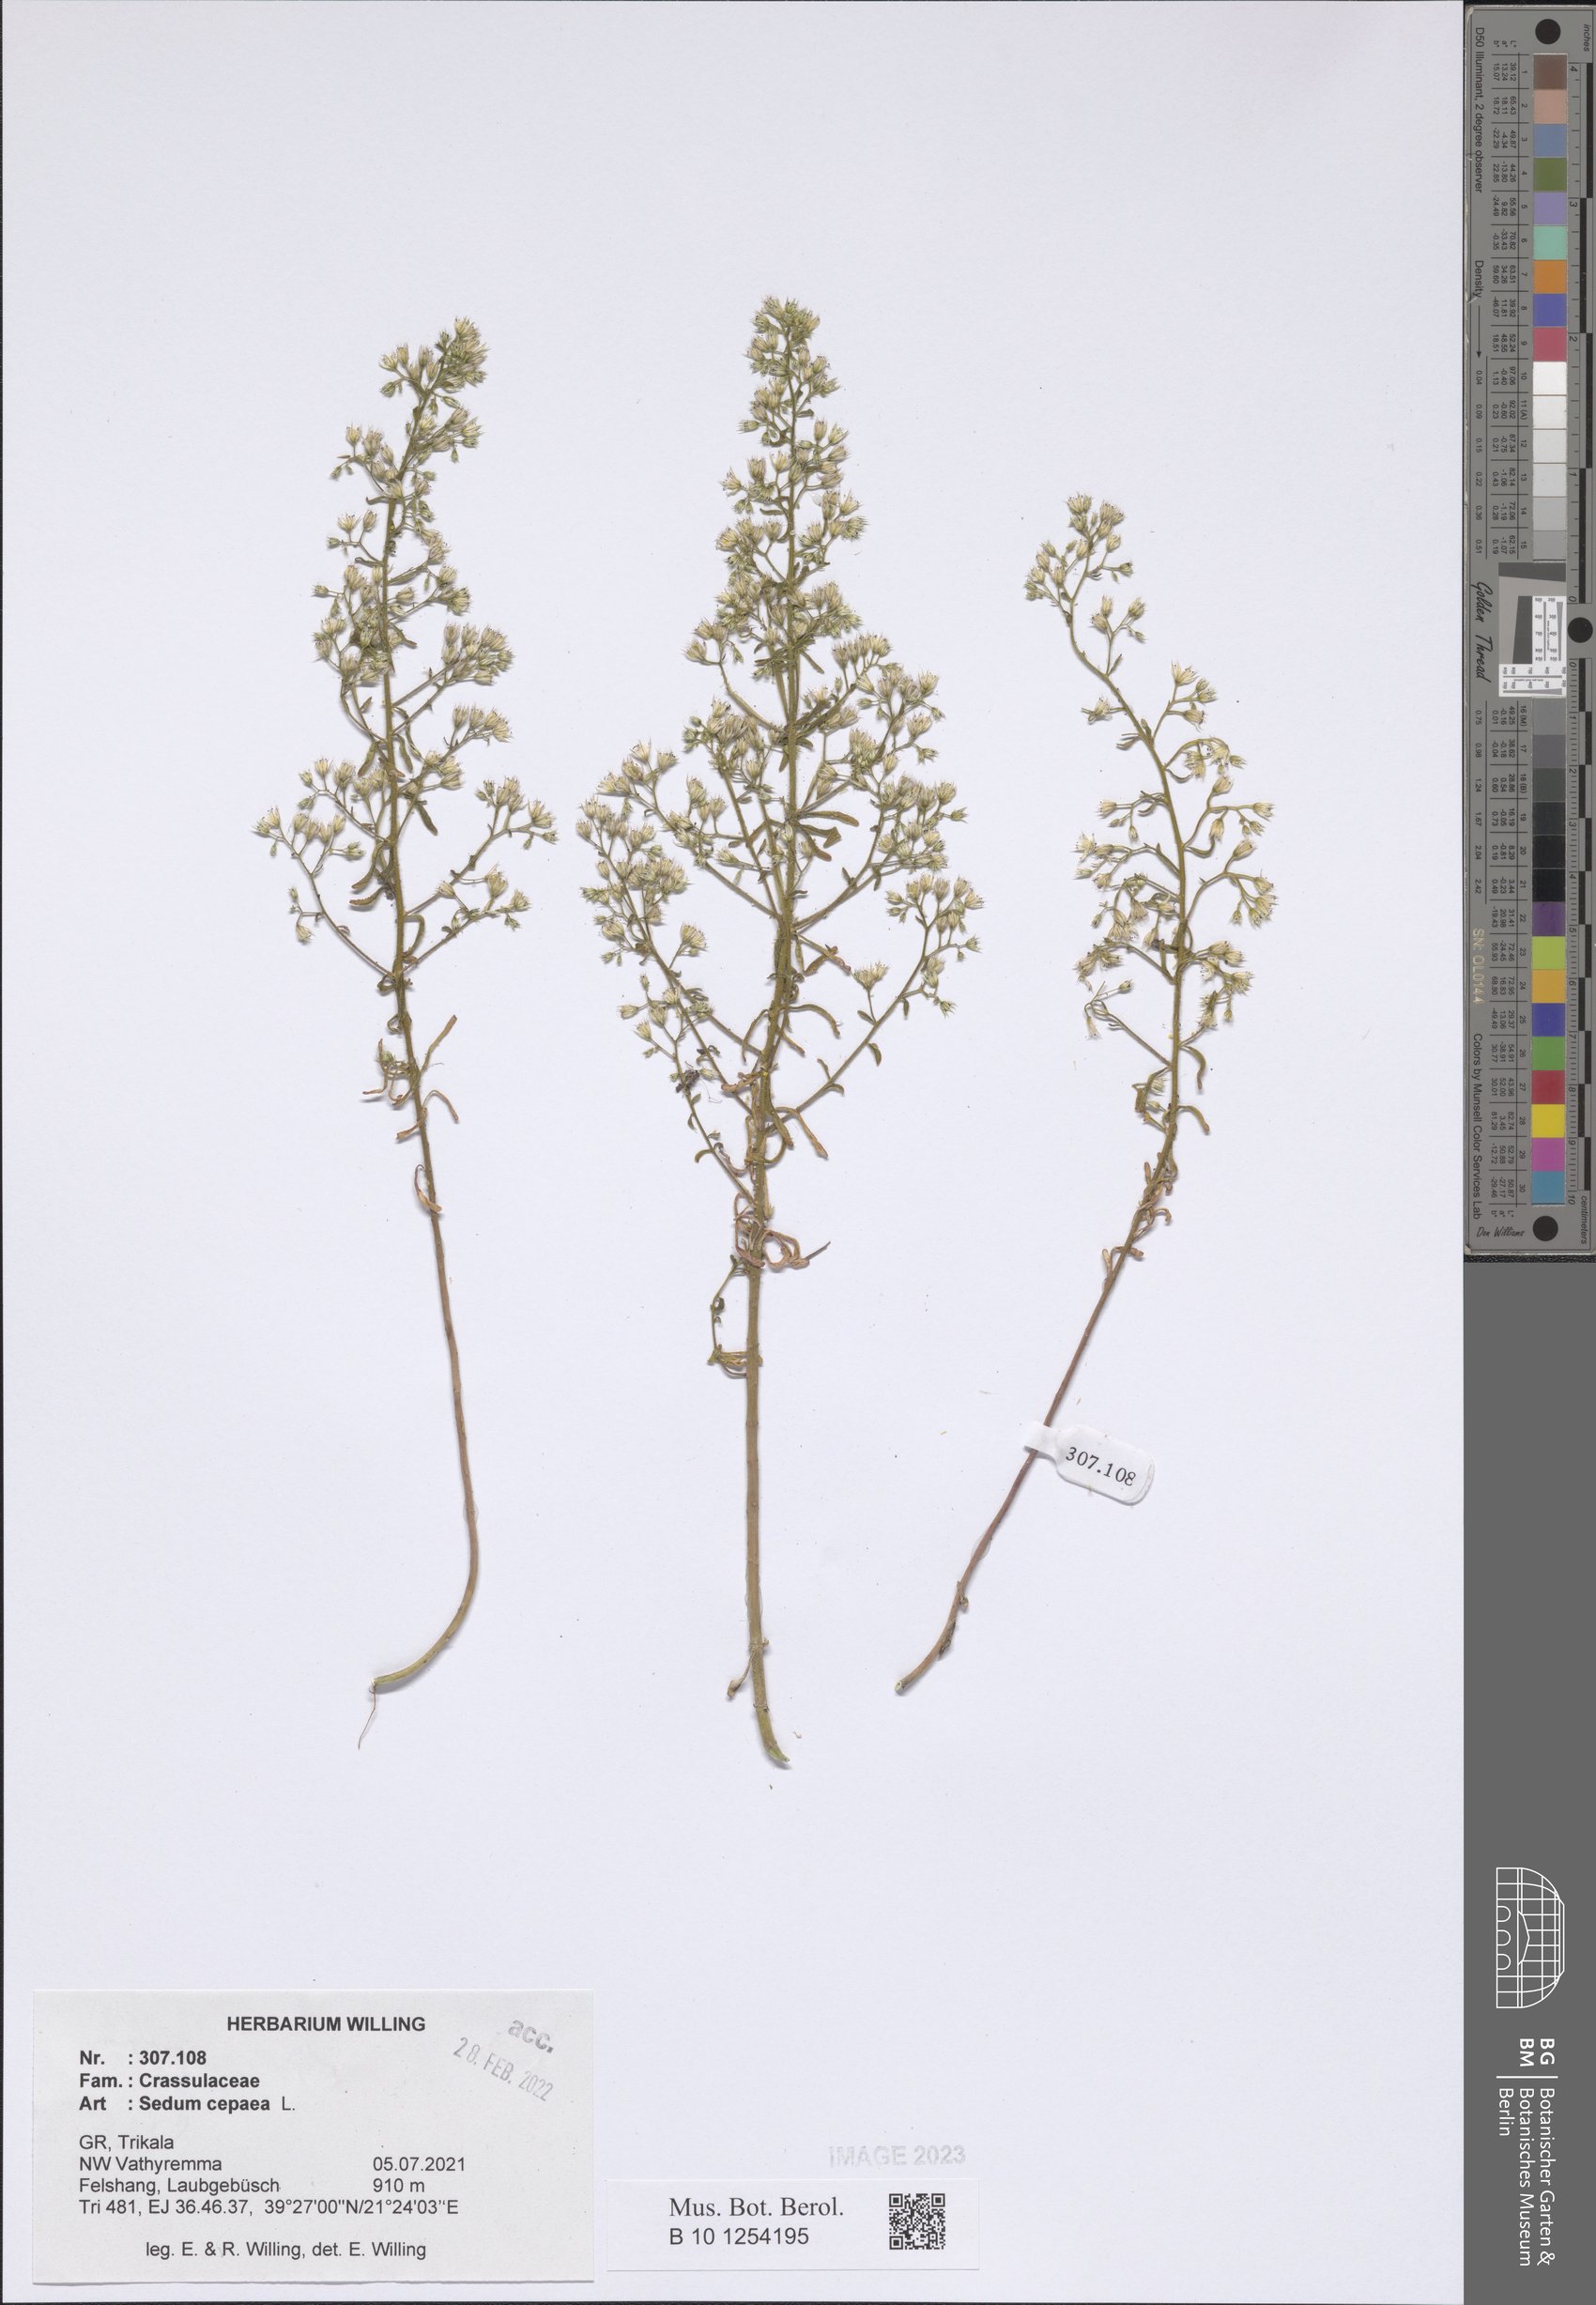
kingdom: Plantae
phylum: Tracheophyta
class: Magnoliopsida
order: Saxifragales
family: Crassulaceae
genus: Sedum
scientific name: Sedum cepaea
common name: Pink stonecrop
